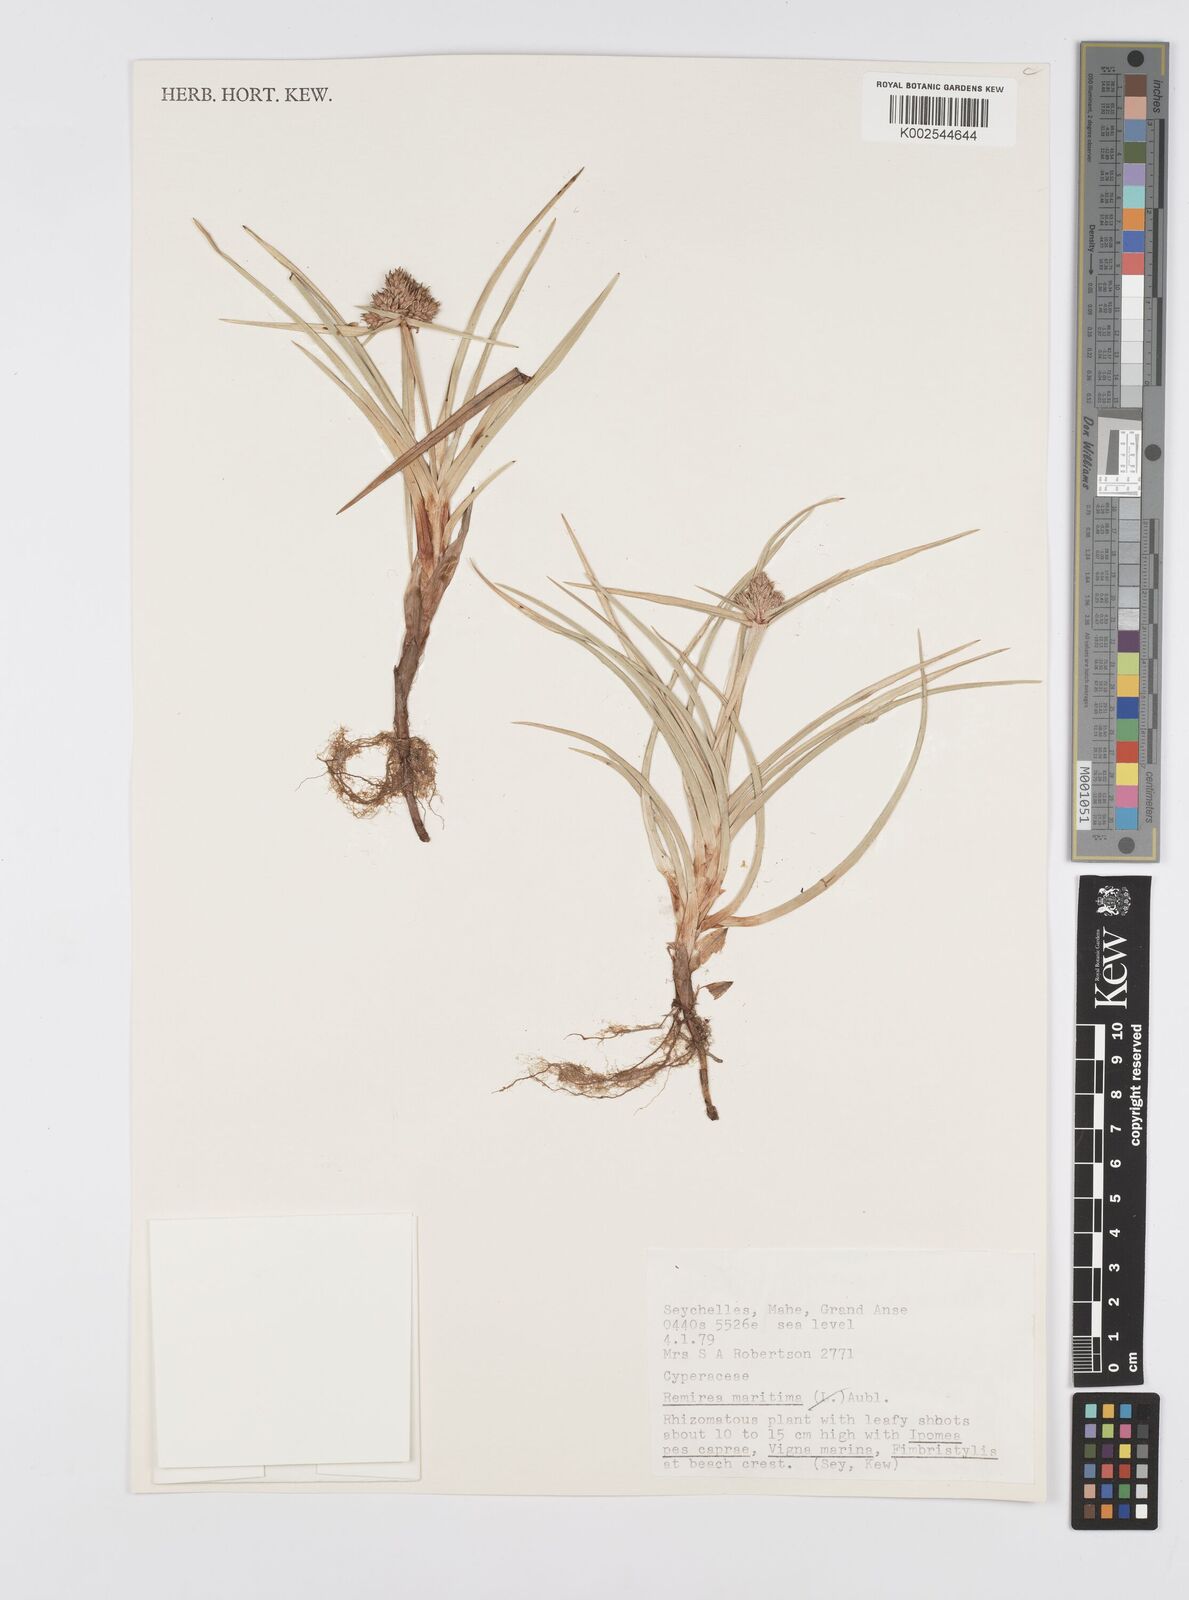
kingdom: Plantae
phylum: Tracheophyta
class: Liliopsida
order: Poales
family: Cyperaceae
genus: Cyperus
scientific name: Cyperus
